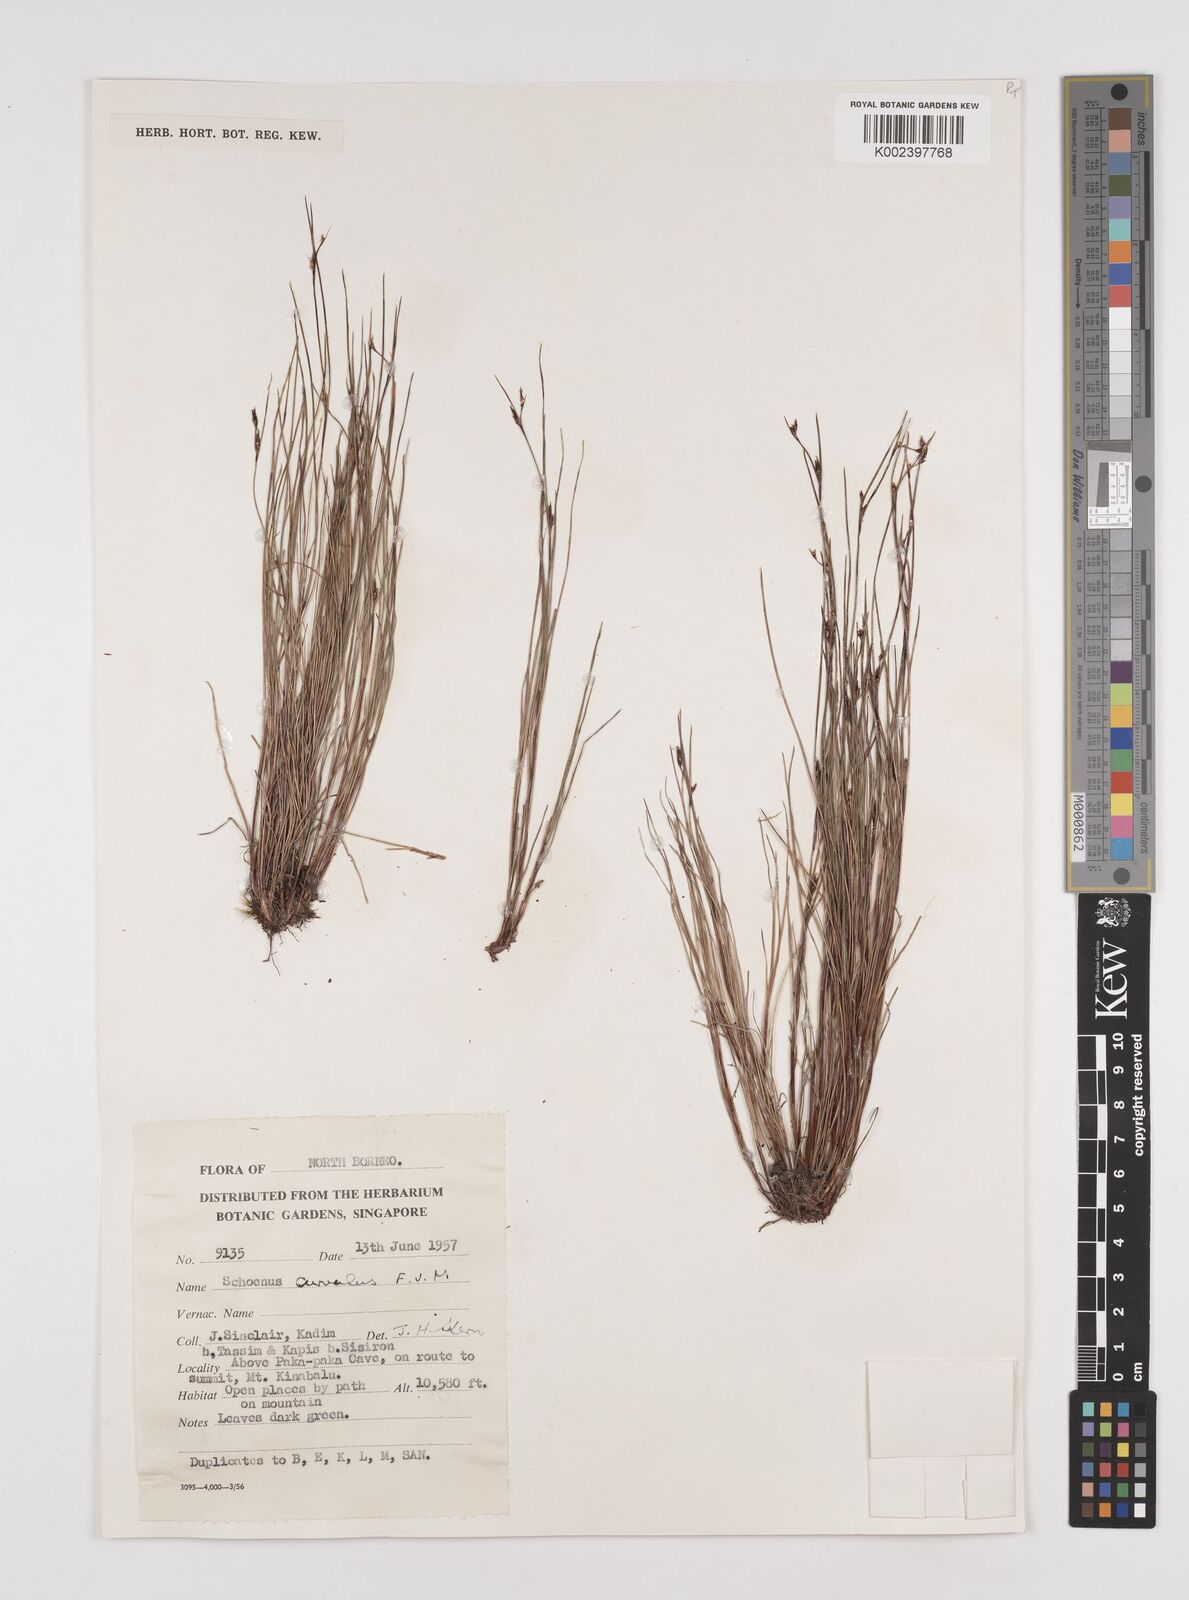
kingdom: Plantae
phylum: Tracheophyta
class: Liliopsida
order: Poales
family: Cyperaceae
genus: Schoenus
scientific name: Schoenus curvulus
